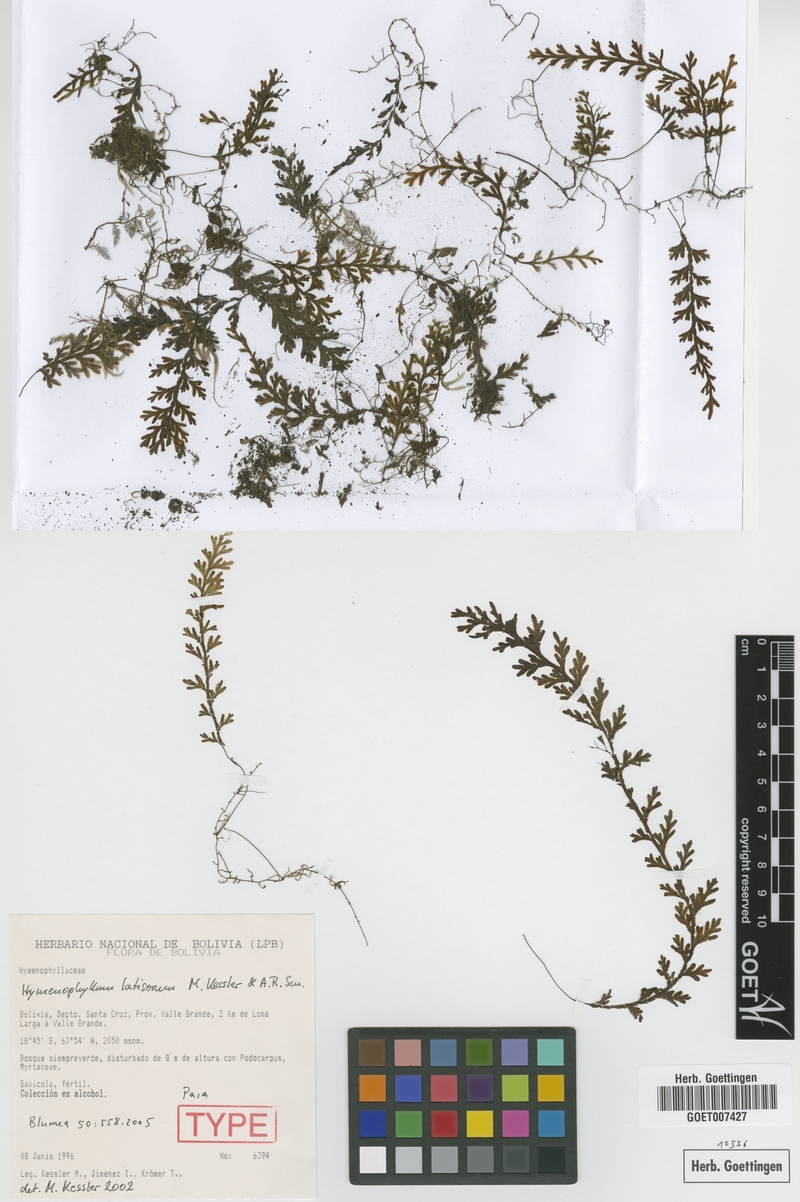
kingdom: Plantae
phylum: Tracheophyta
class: Polypodiopsida
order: Hymenophyllales
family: Hymenophyllaceae
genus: Hymenophyllum
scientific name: Hymenophyllum latisorum
